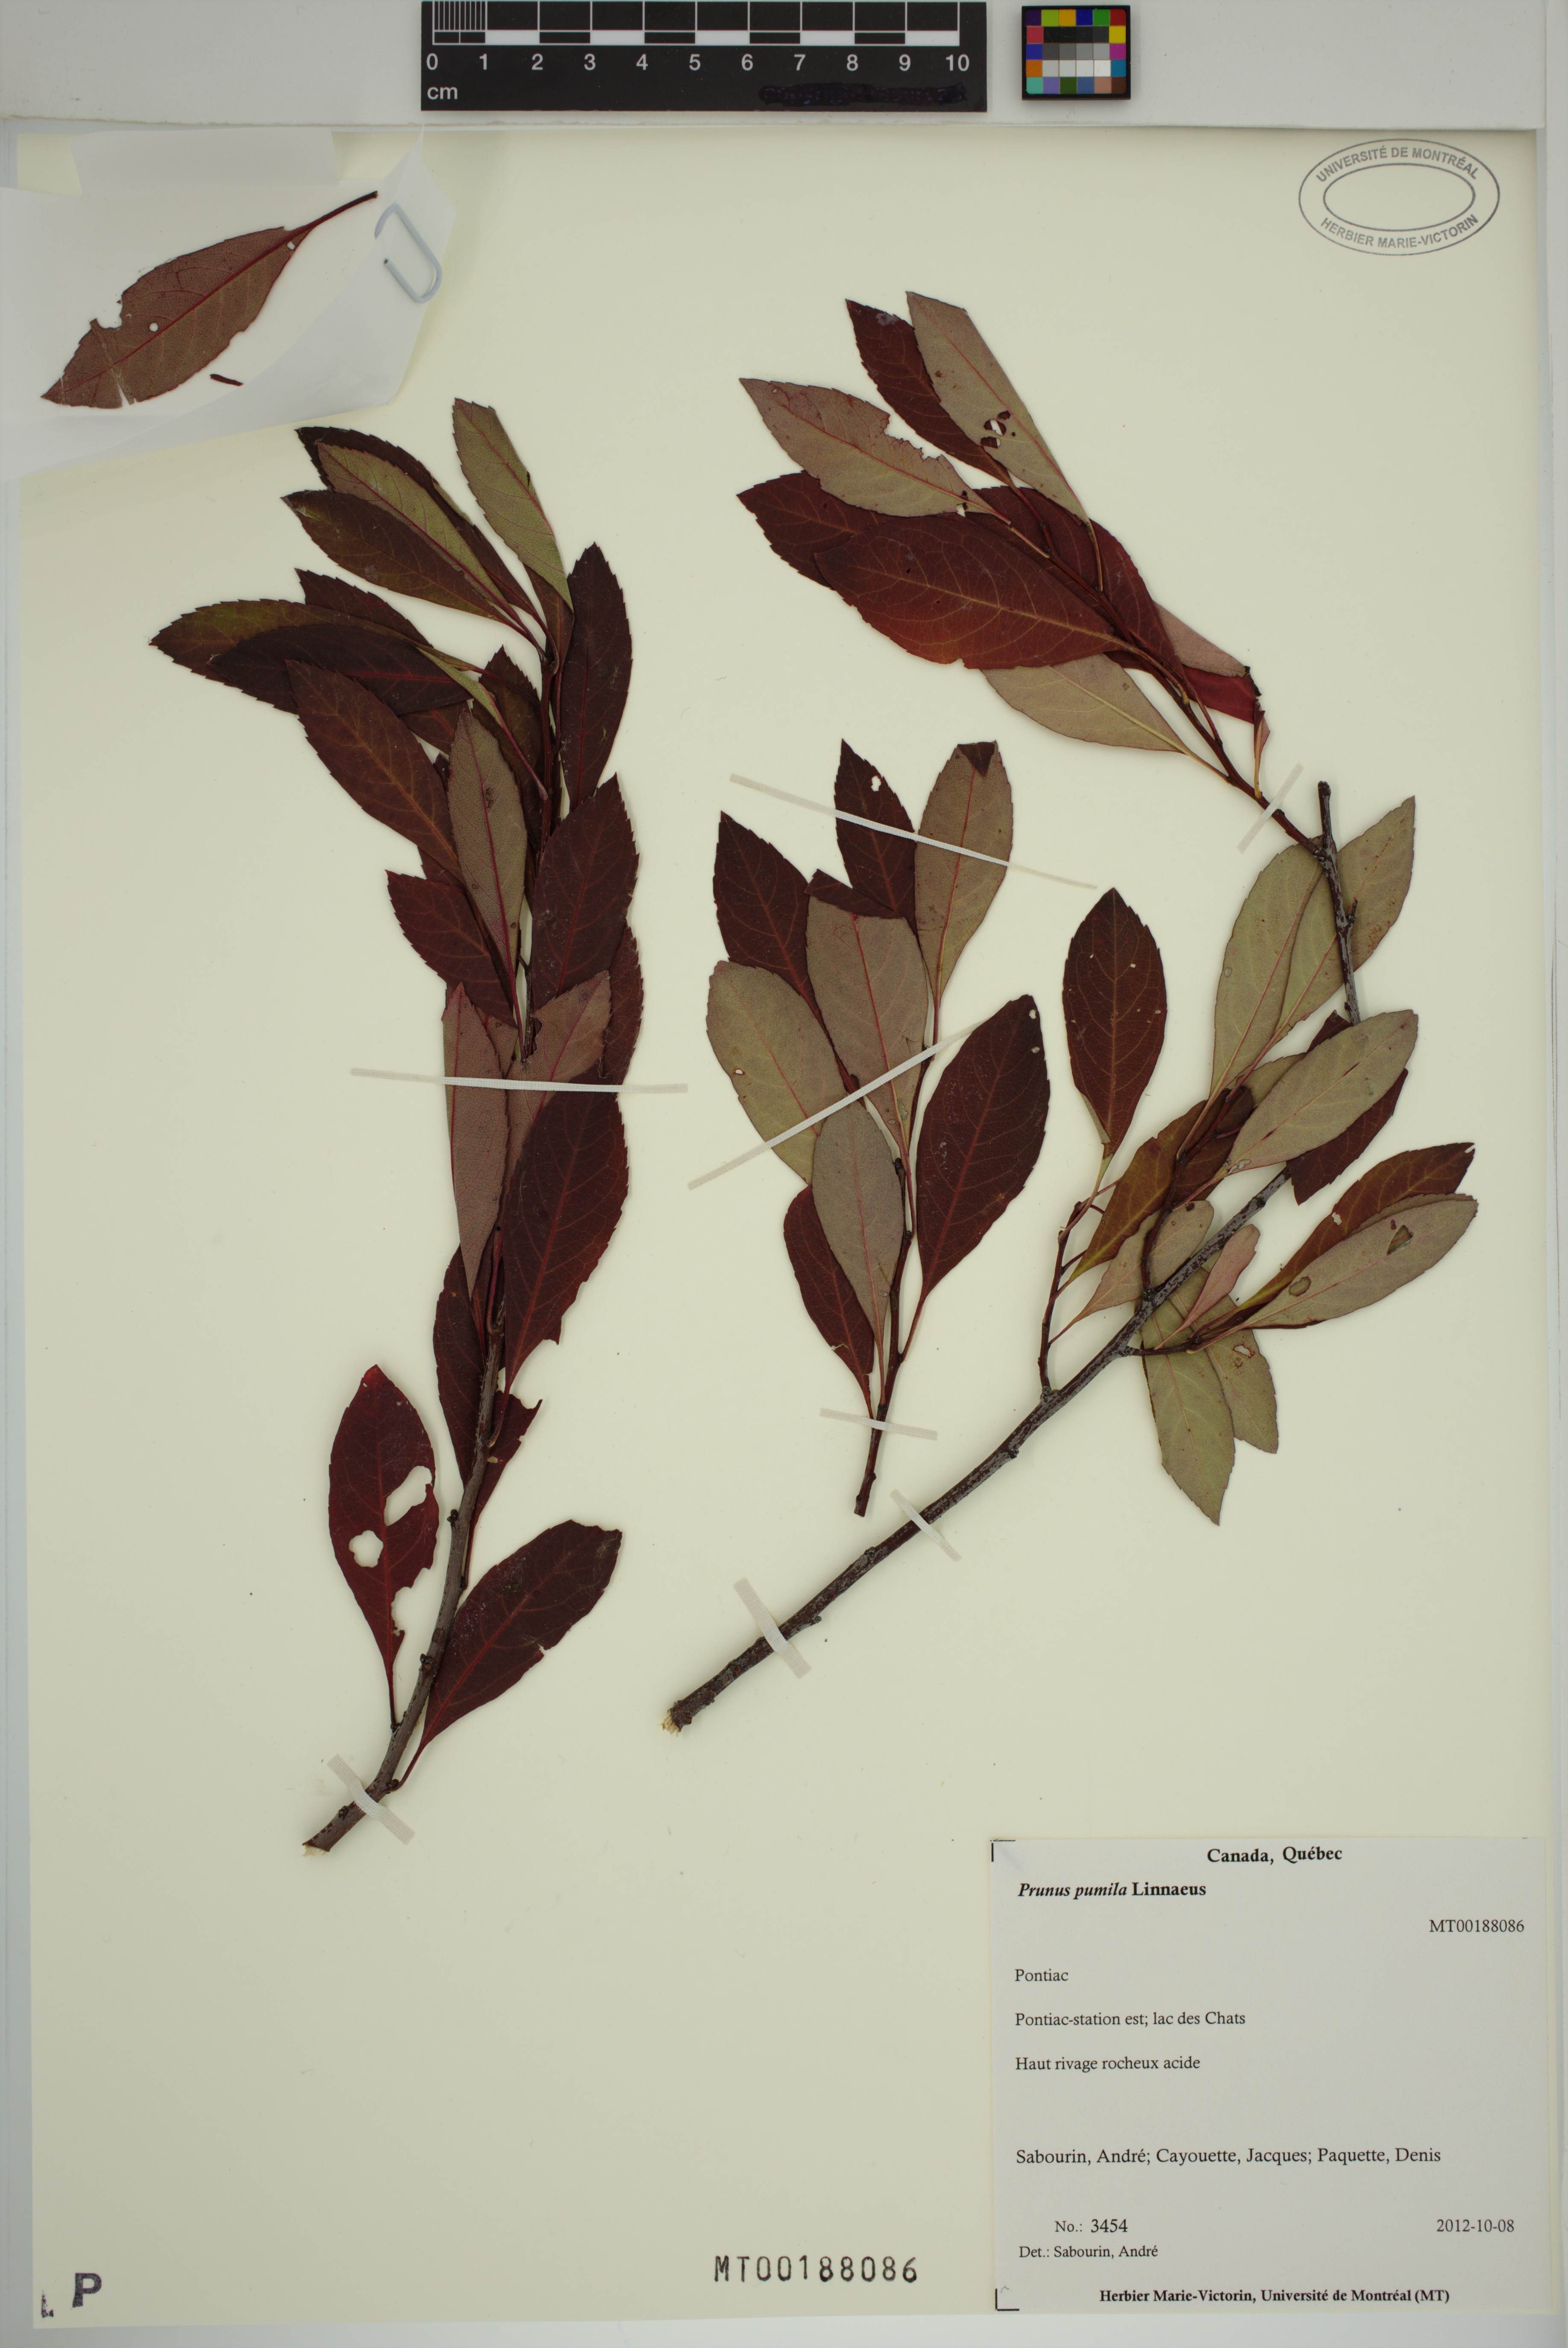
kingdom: Plantae
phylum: Tracheophyta
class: Magnoliopsida
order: Rosales
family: Rosaceae
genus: Prunus
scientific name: Prunus pumila
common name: Dwarf cherry
